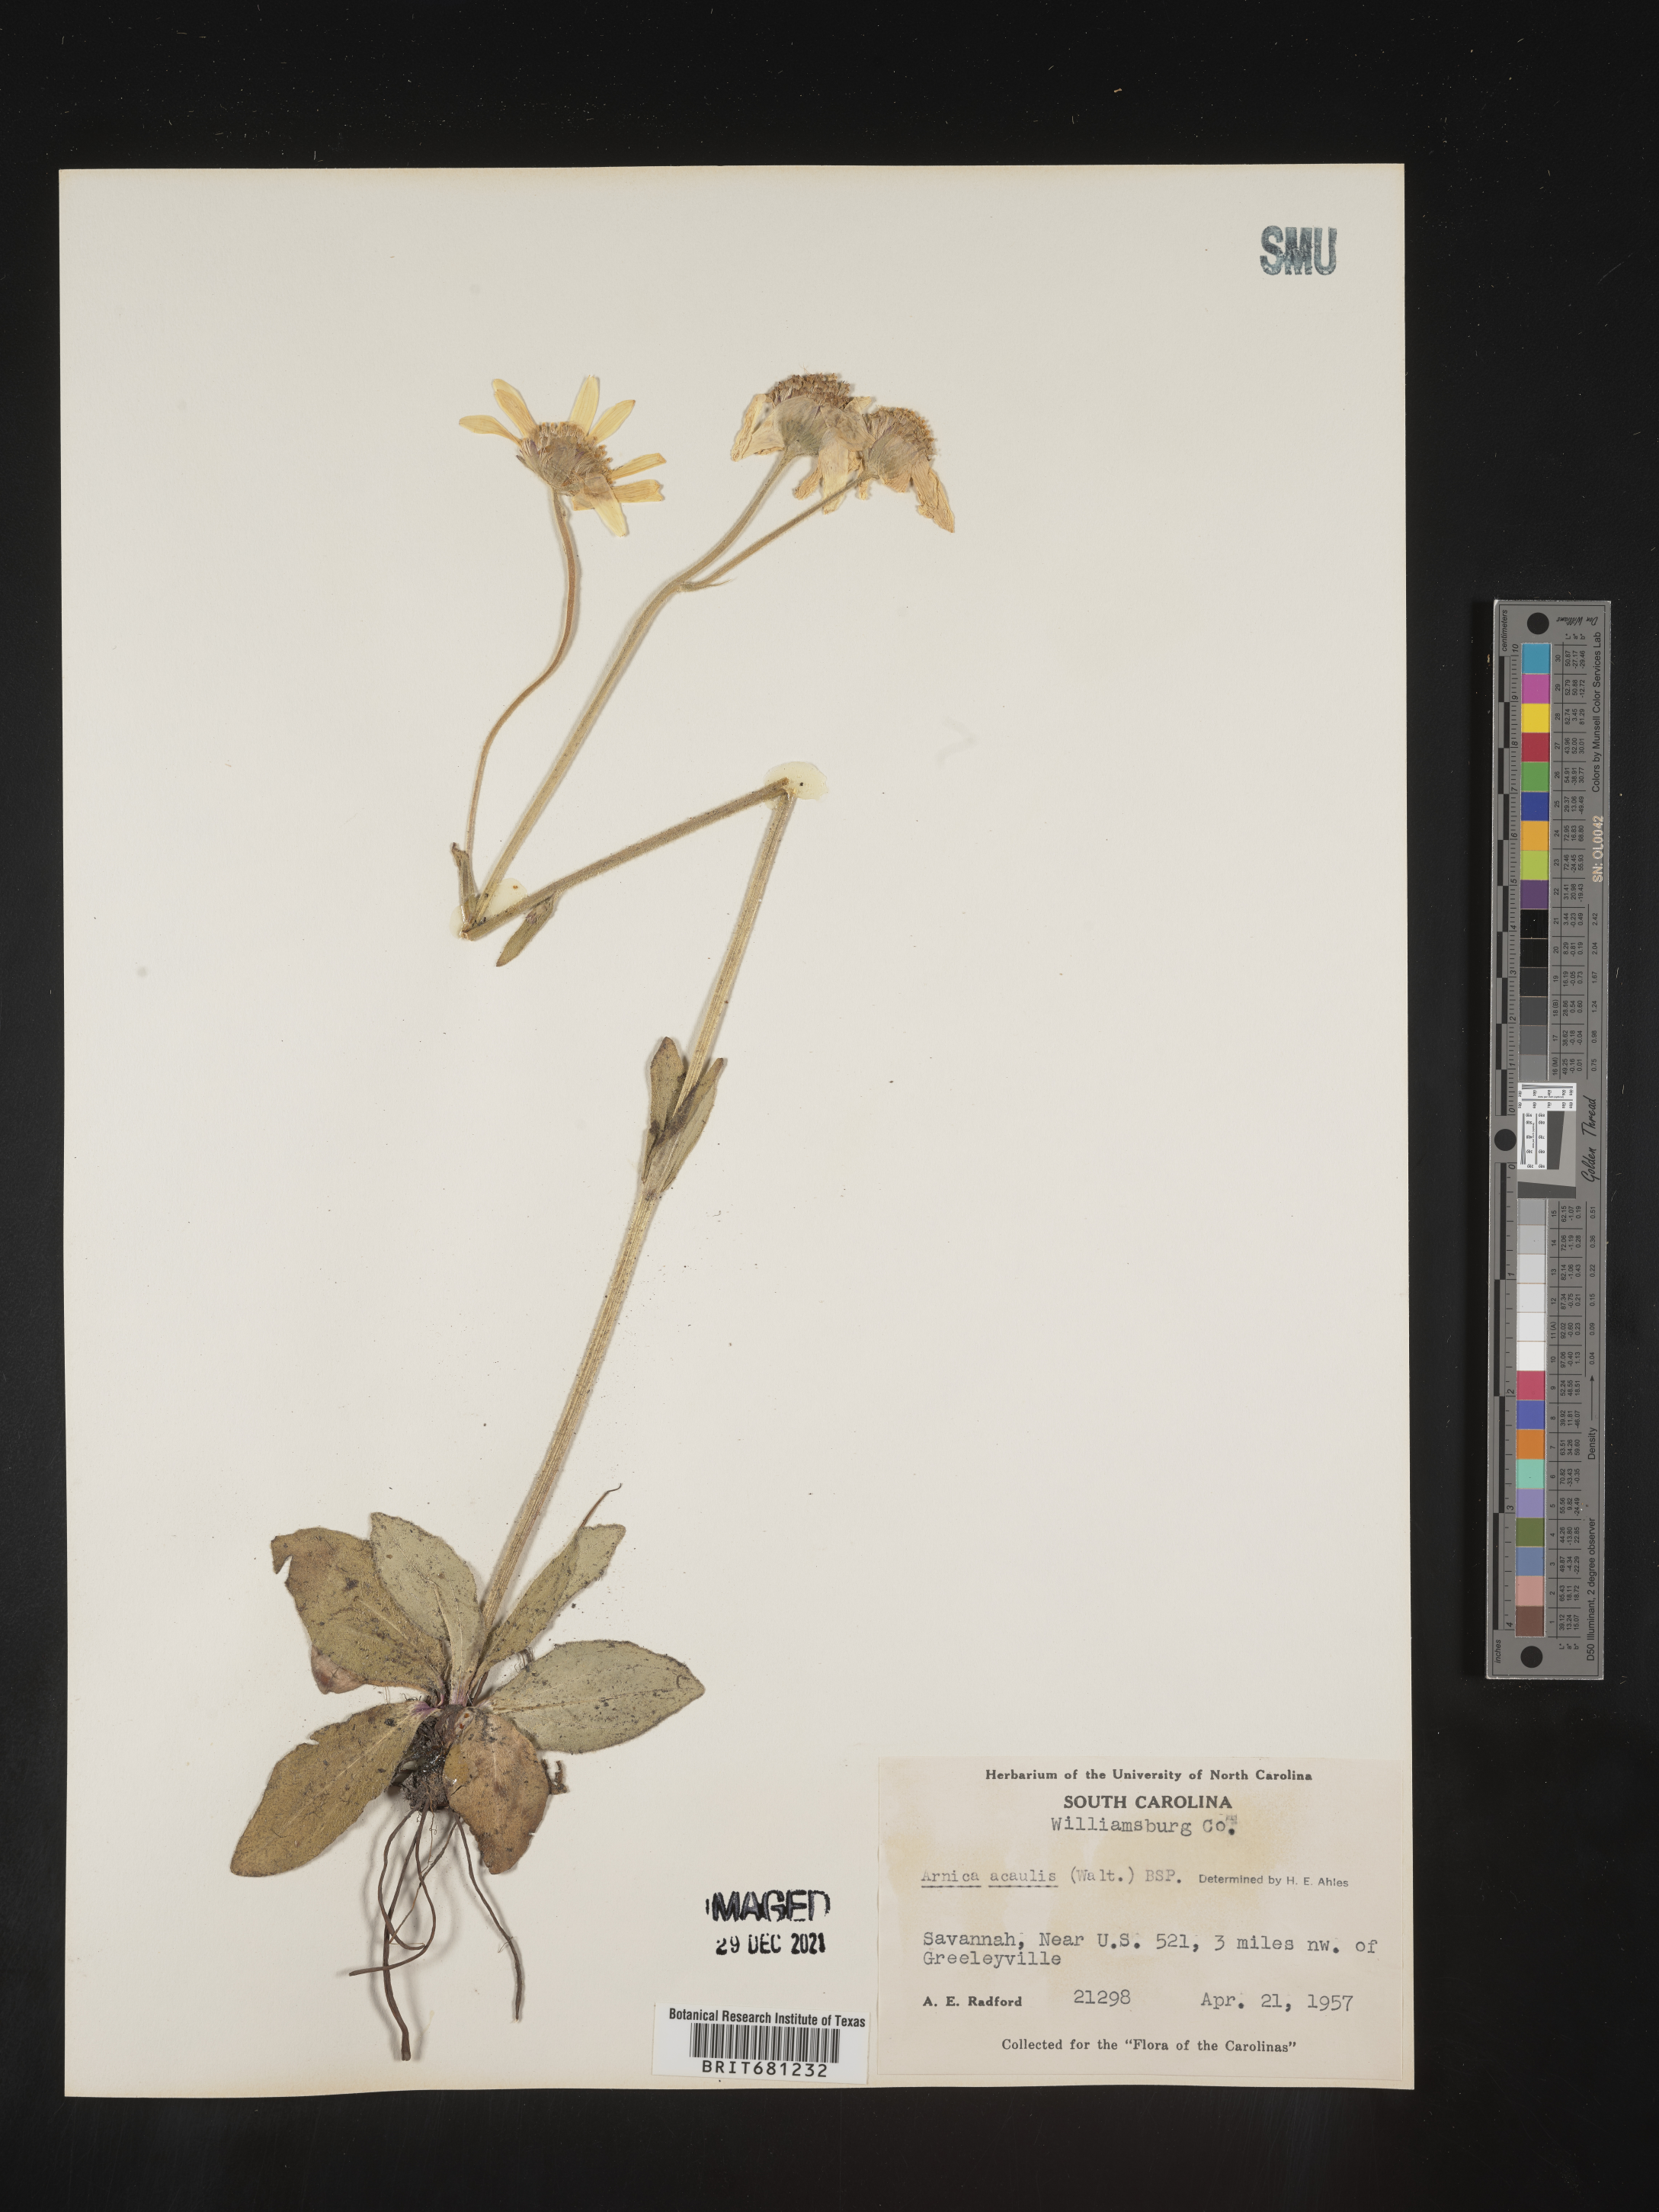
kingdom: Plantae
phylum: Tracheophyta
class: Magnoliopsida
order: Asterales
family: Asteraceae
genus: Arnica
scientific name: Arnica acaulis
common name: Common leopardbane
